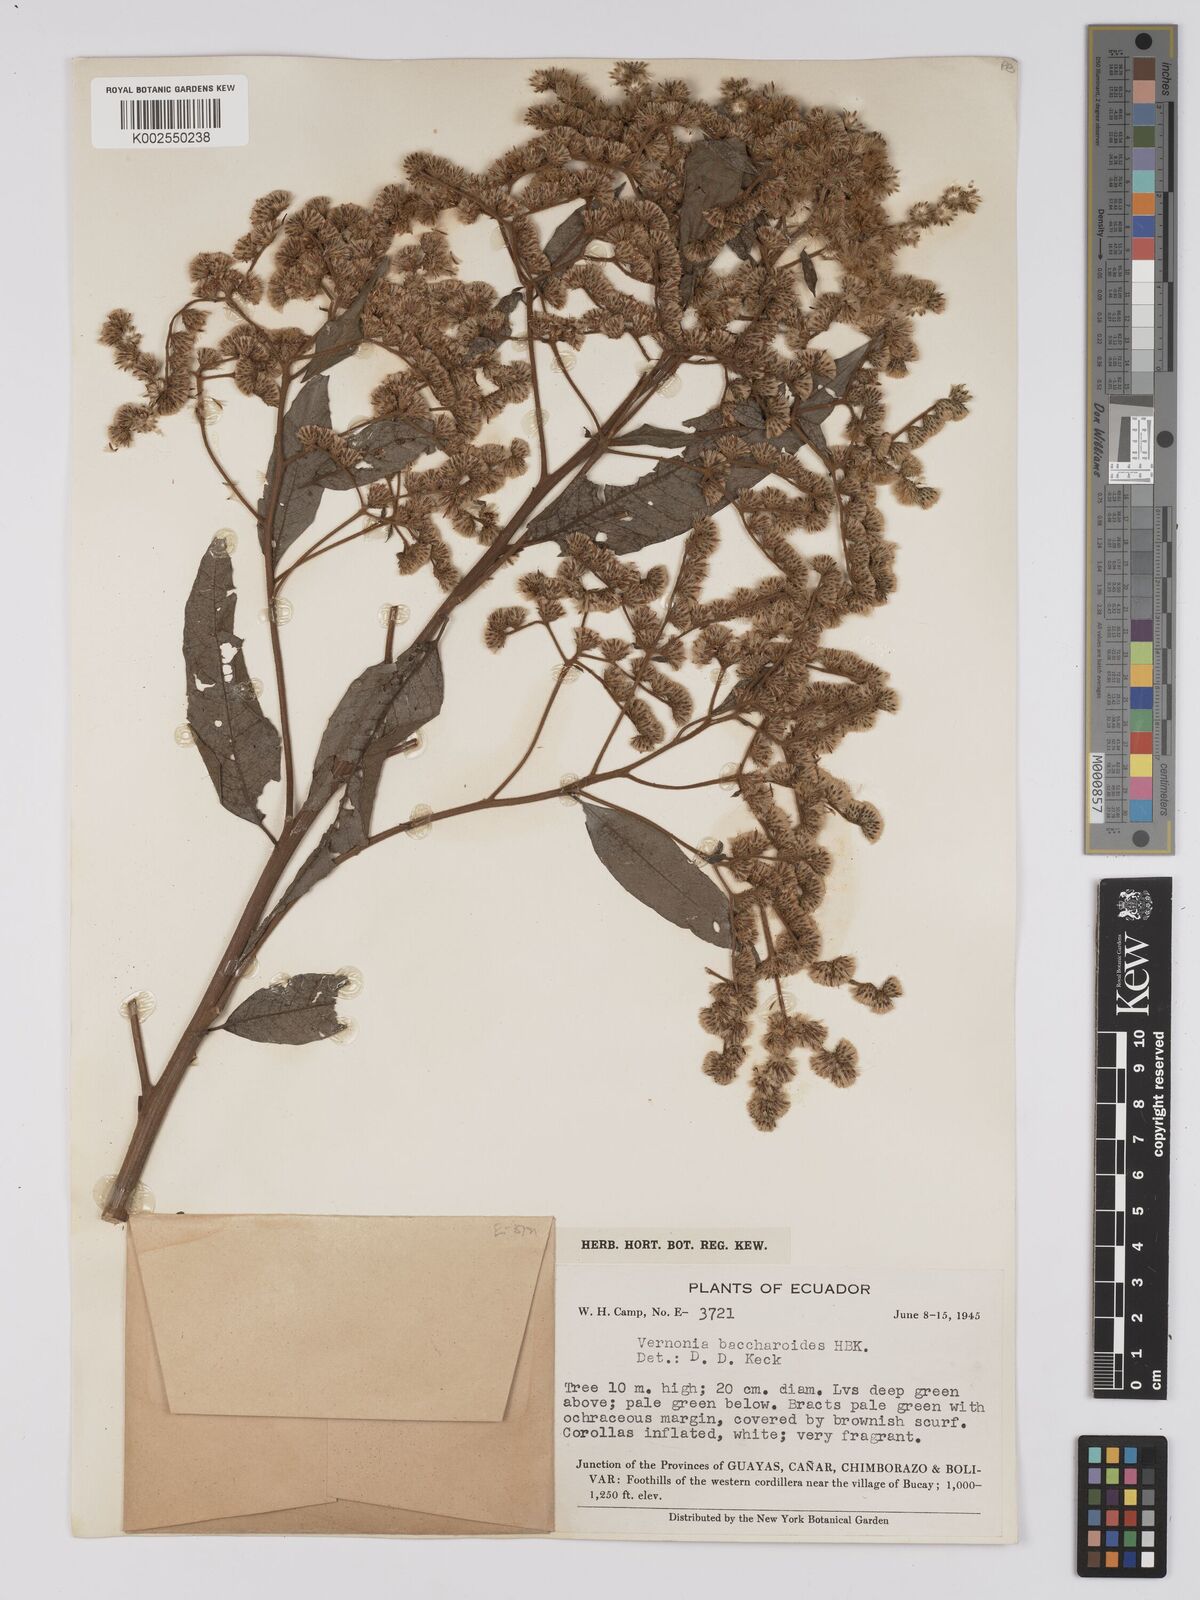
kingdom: Plantae
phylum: Tracheophyta
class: Magnoliopsida
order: Asterales
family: Asteraceae
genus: Vernonanthura
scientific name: Vernonanthura patens
